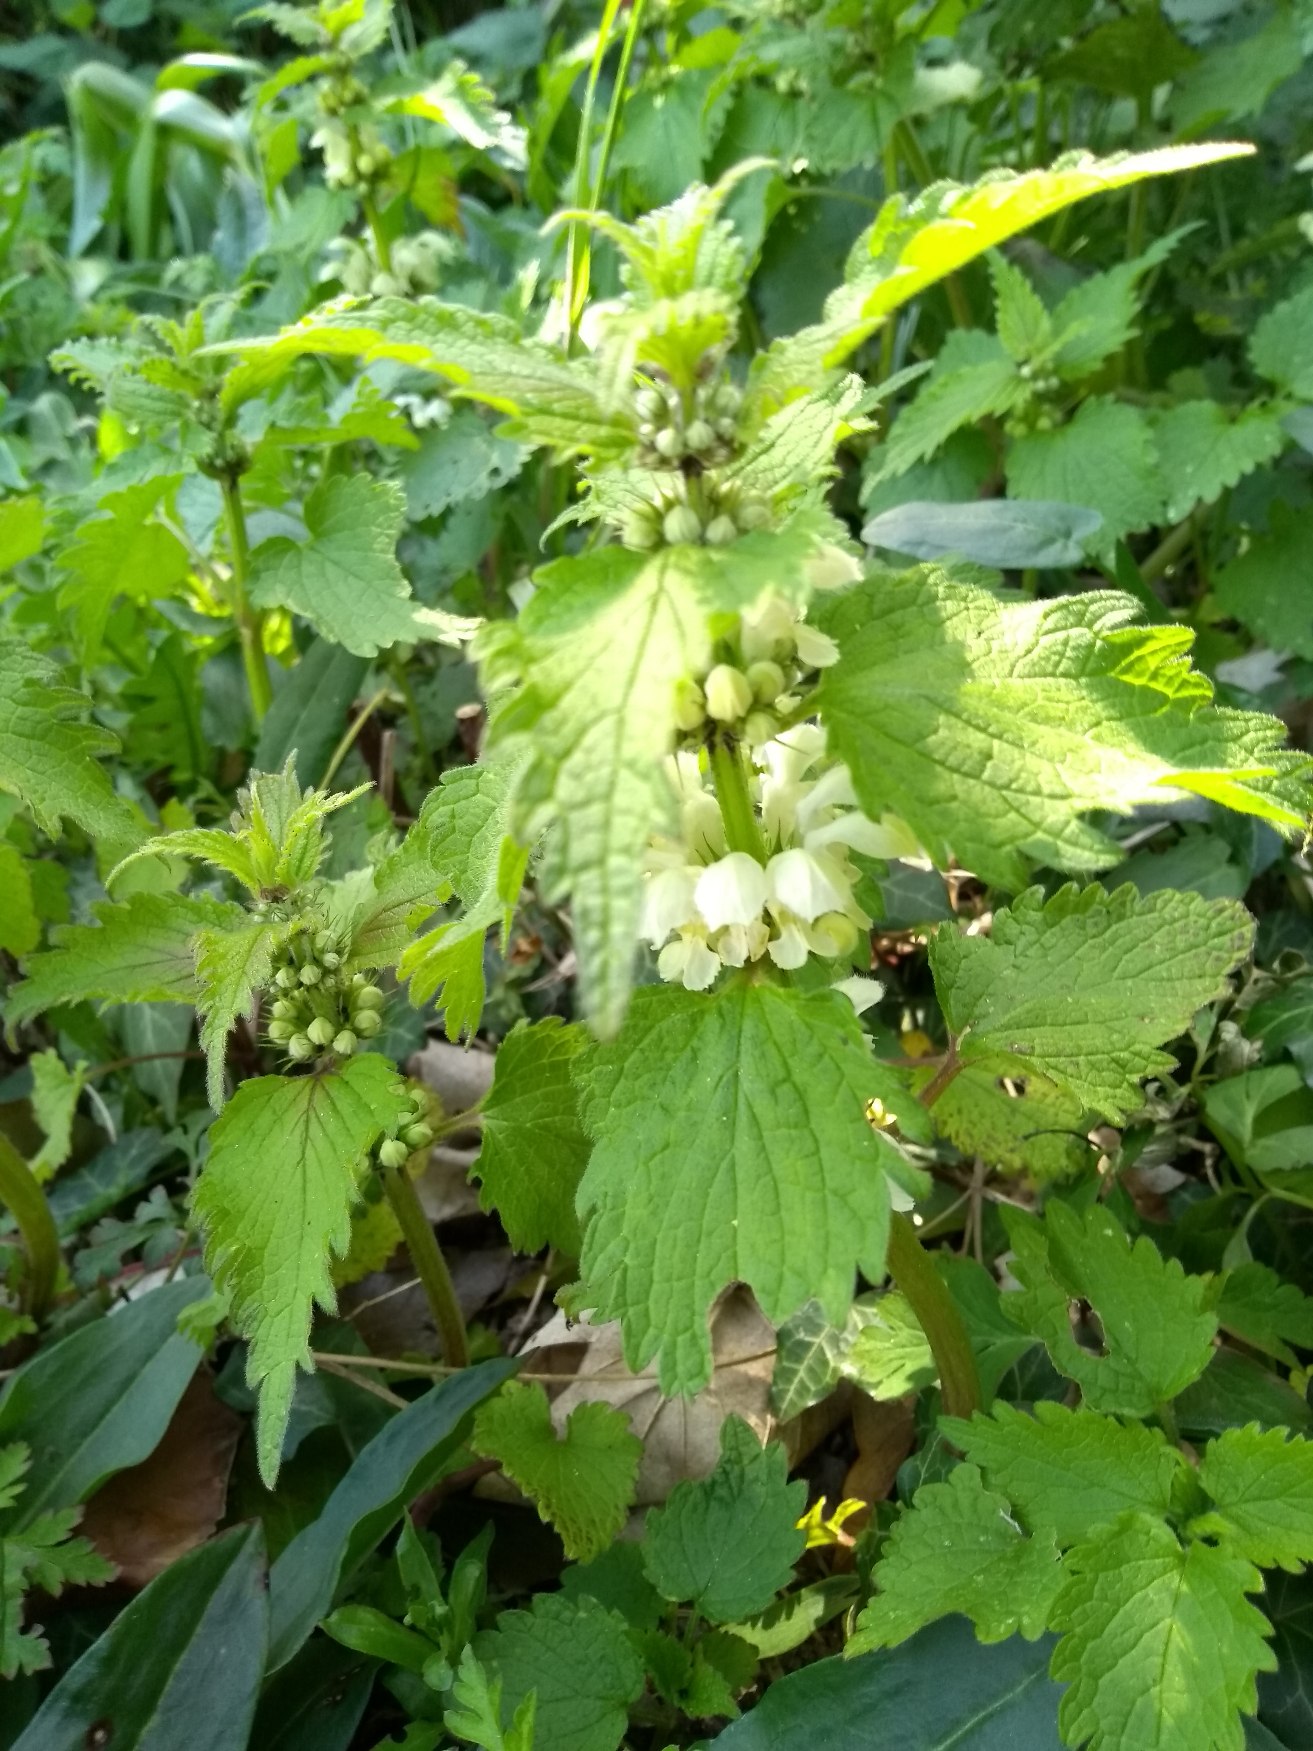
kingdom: Plantae
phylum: Tracheophyta
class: Magnoliopsida
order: Lamiales
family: Lamiaceae
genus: Lamium
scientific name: Lamium album
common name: Døvnælde
